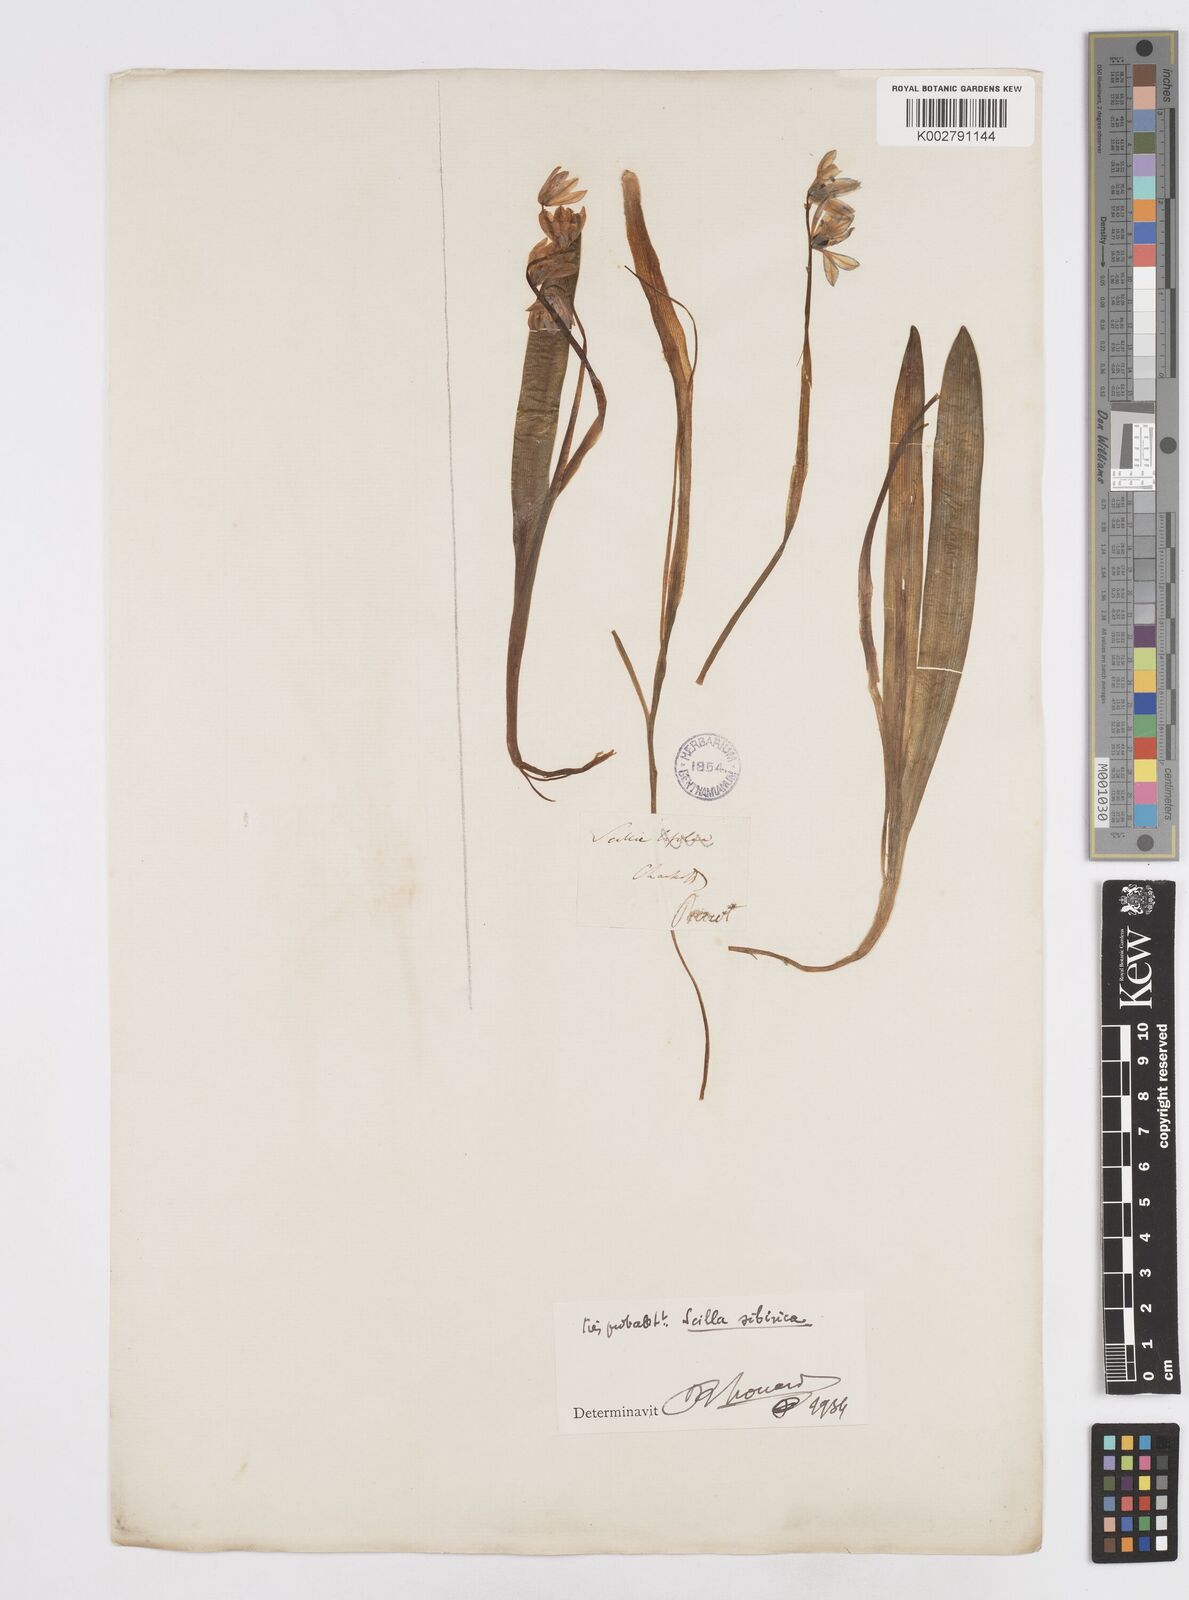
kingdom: Plantae
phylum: Tracheophyta
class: Liliopsida
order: Asparagales
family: Asparagaceae
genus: Scilla
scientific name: Scilla bifolia
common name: Alpine squill
